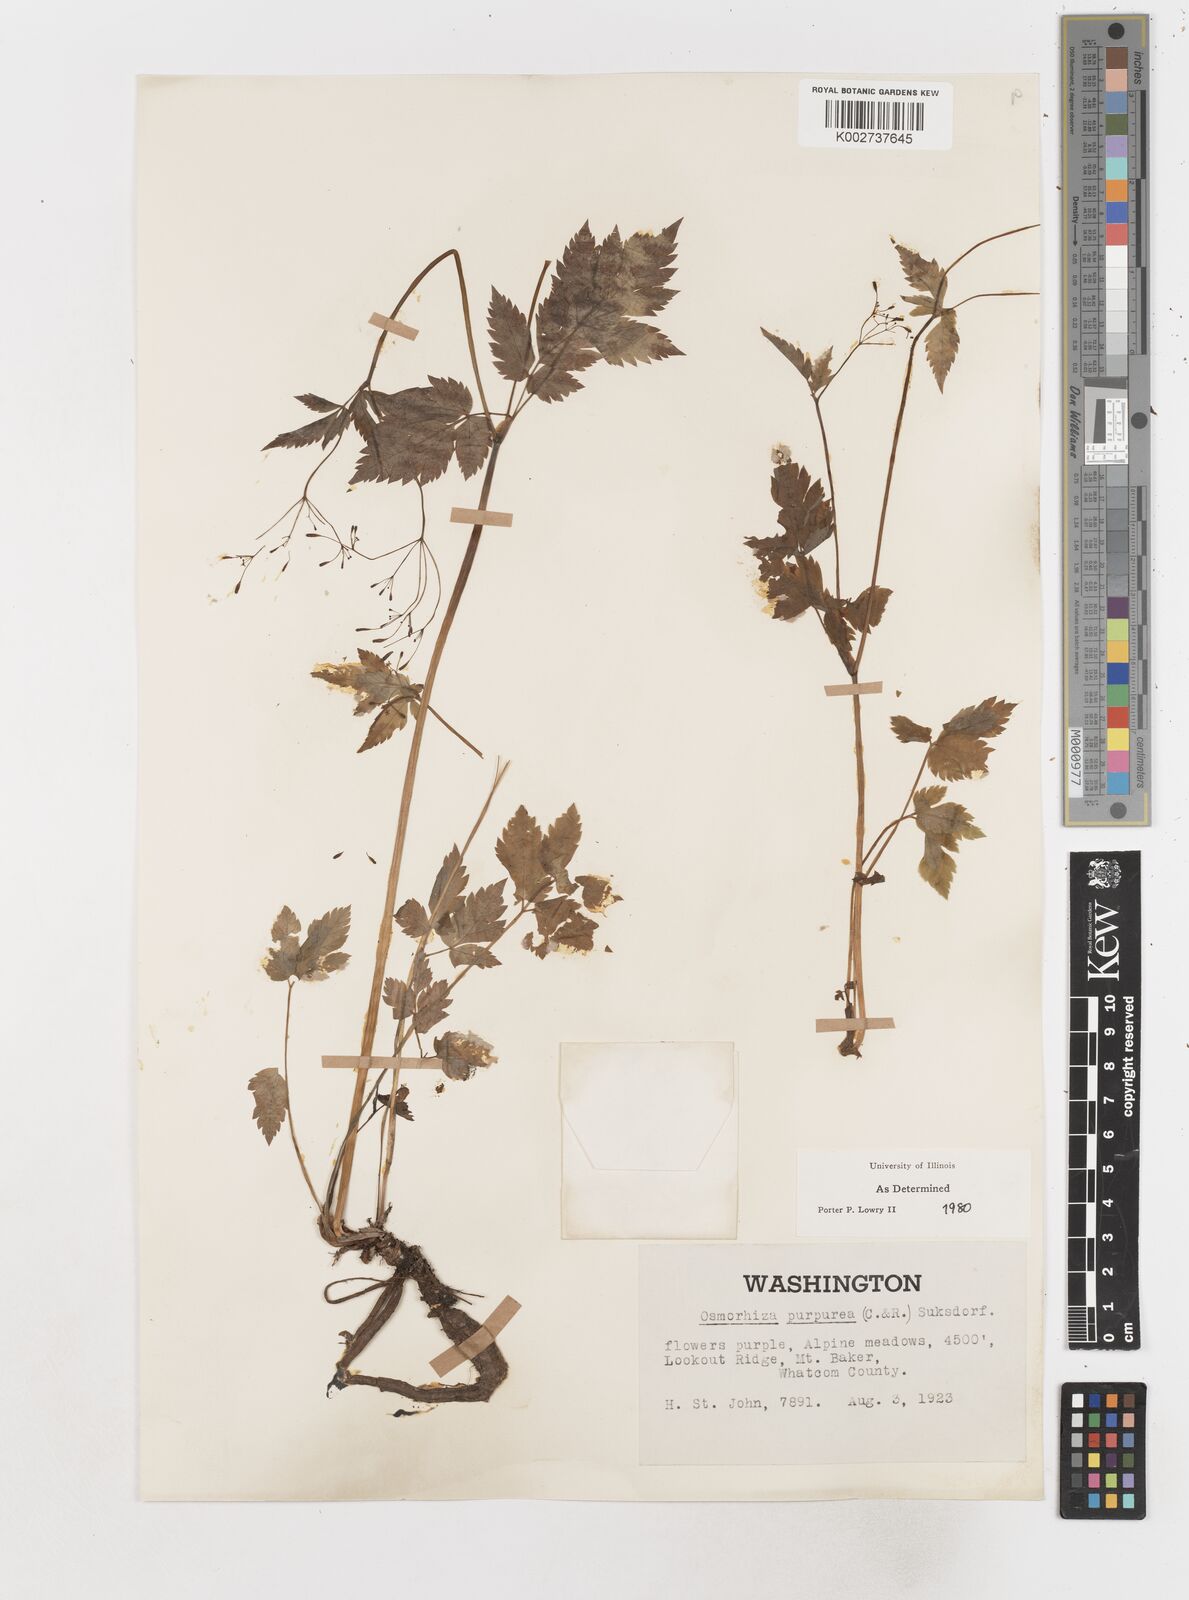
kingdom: Plantae
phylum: Tracheophyta
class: Magnoliopsida
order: Apiales
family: Apiaceae
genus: Osmorhiza
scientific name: Osmorhiza purpurea
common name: Purple sweet cicely
